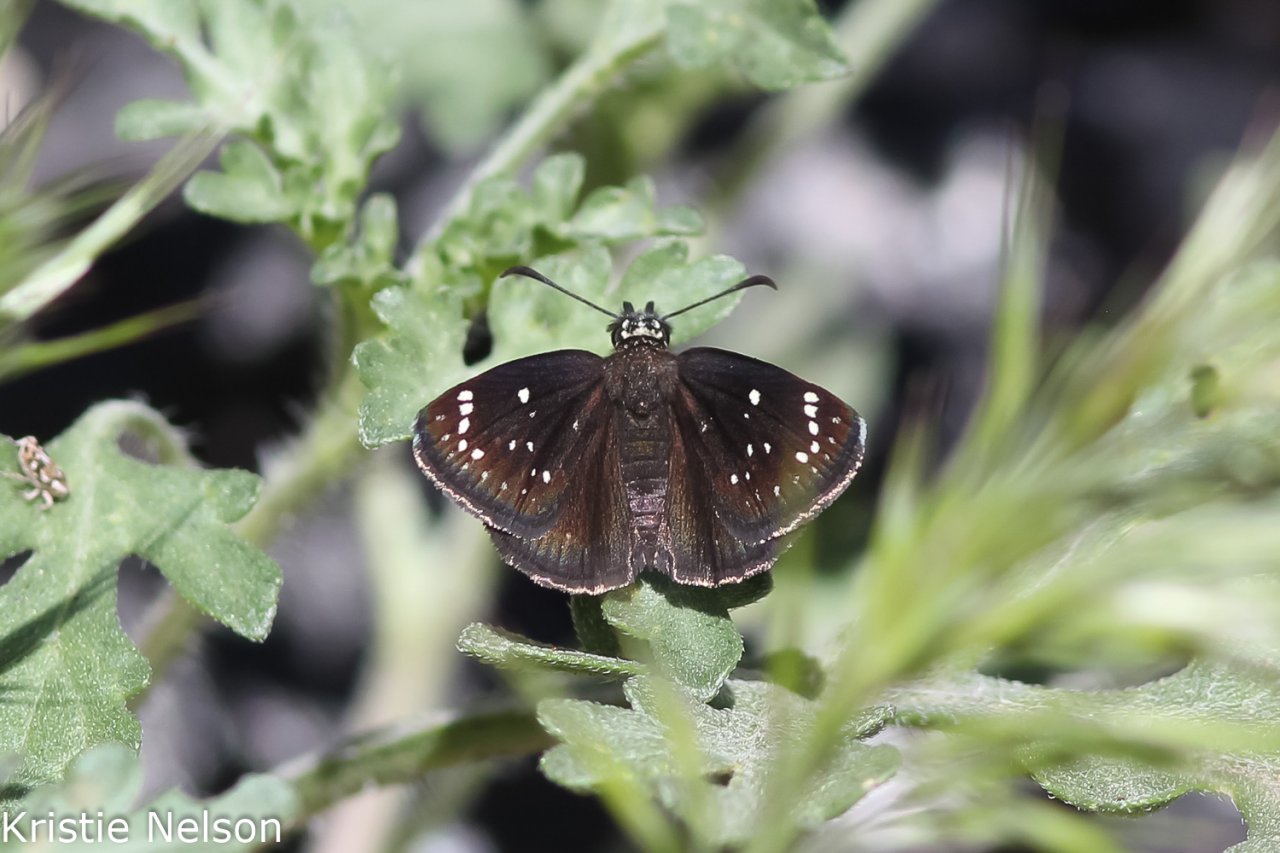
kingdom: Animalia
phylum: Arthropoda
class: Insecta
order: Lepidoptera
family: Hesperiidae
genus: Pholisora
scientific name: Pholisora catullus
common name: Common Sootywing
